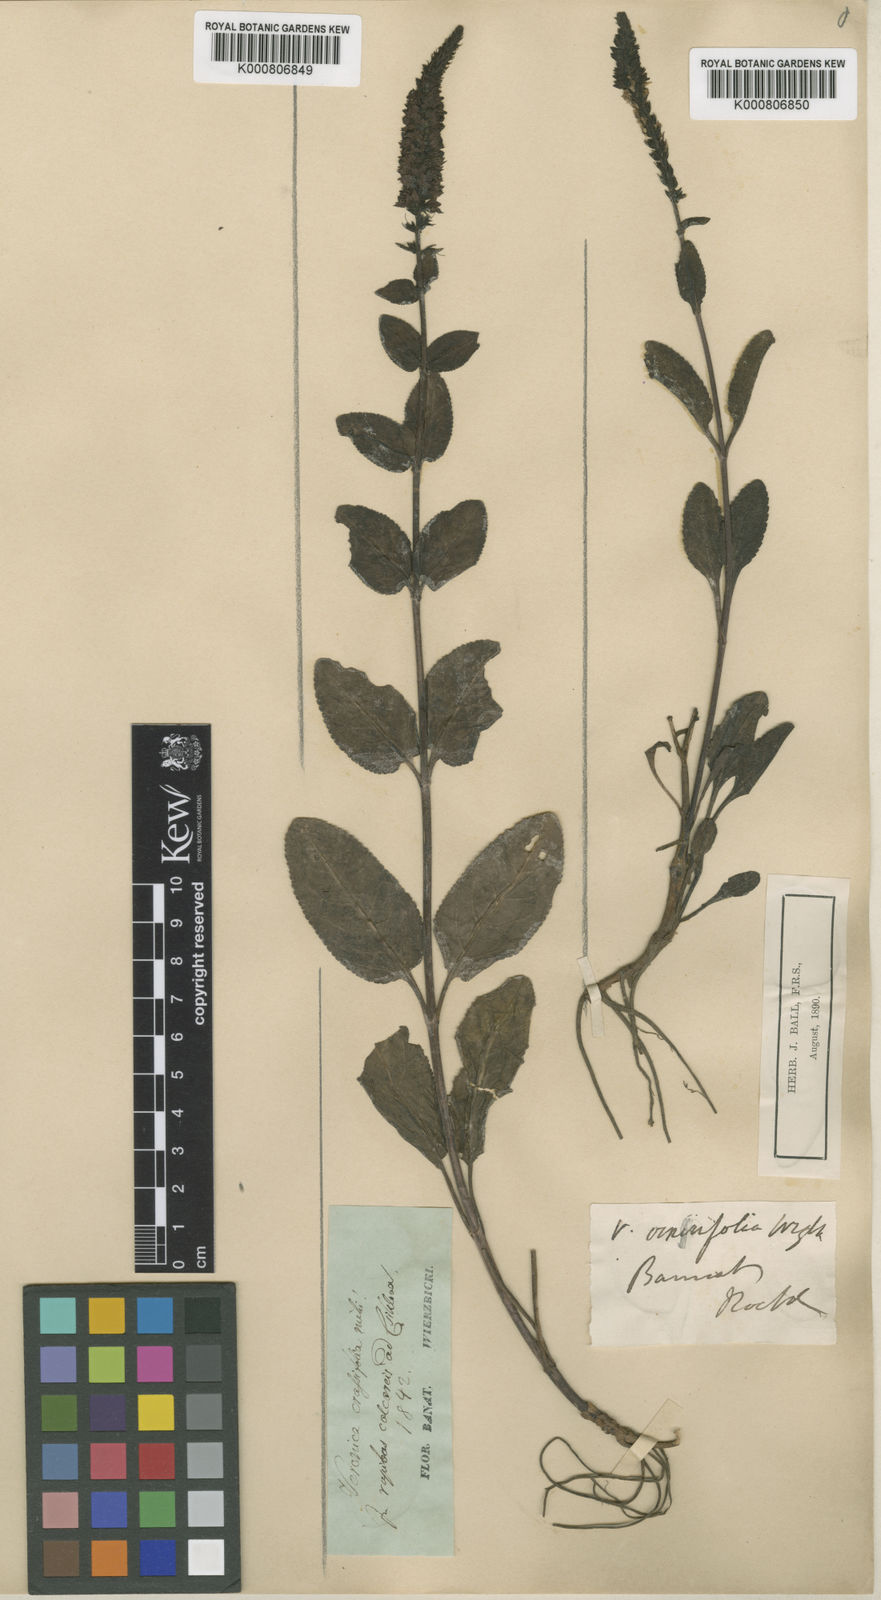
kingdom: Plantae
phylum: Tracheophyta
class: Magnoliopsida
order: Lamiales
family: Plantaginaceae
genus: Veronica
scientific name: Veronica barrelieri
